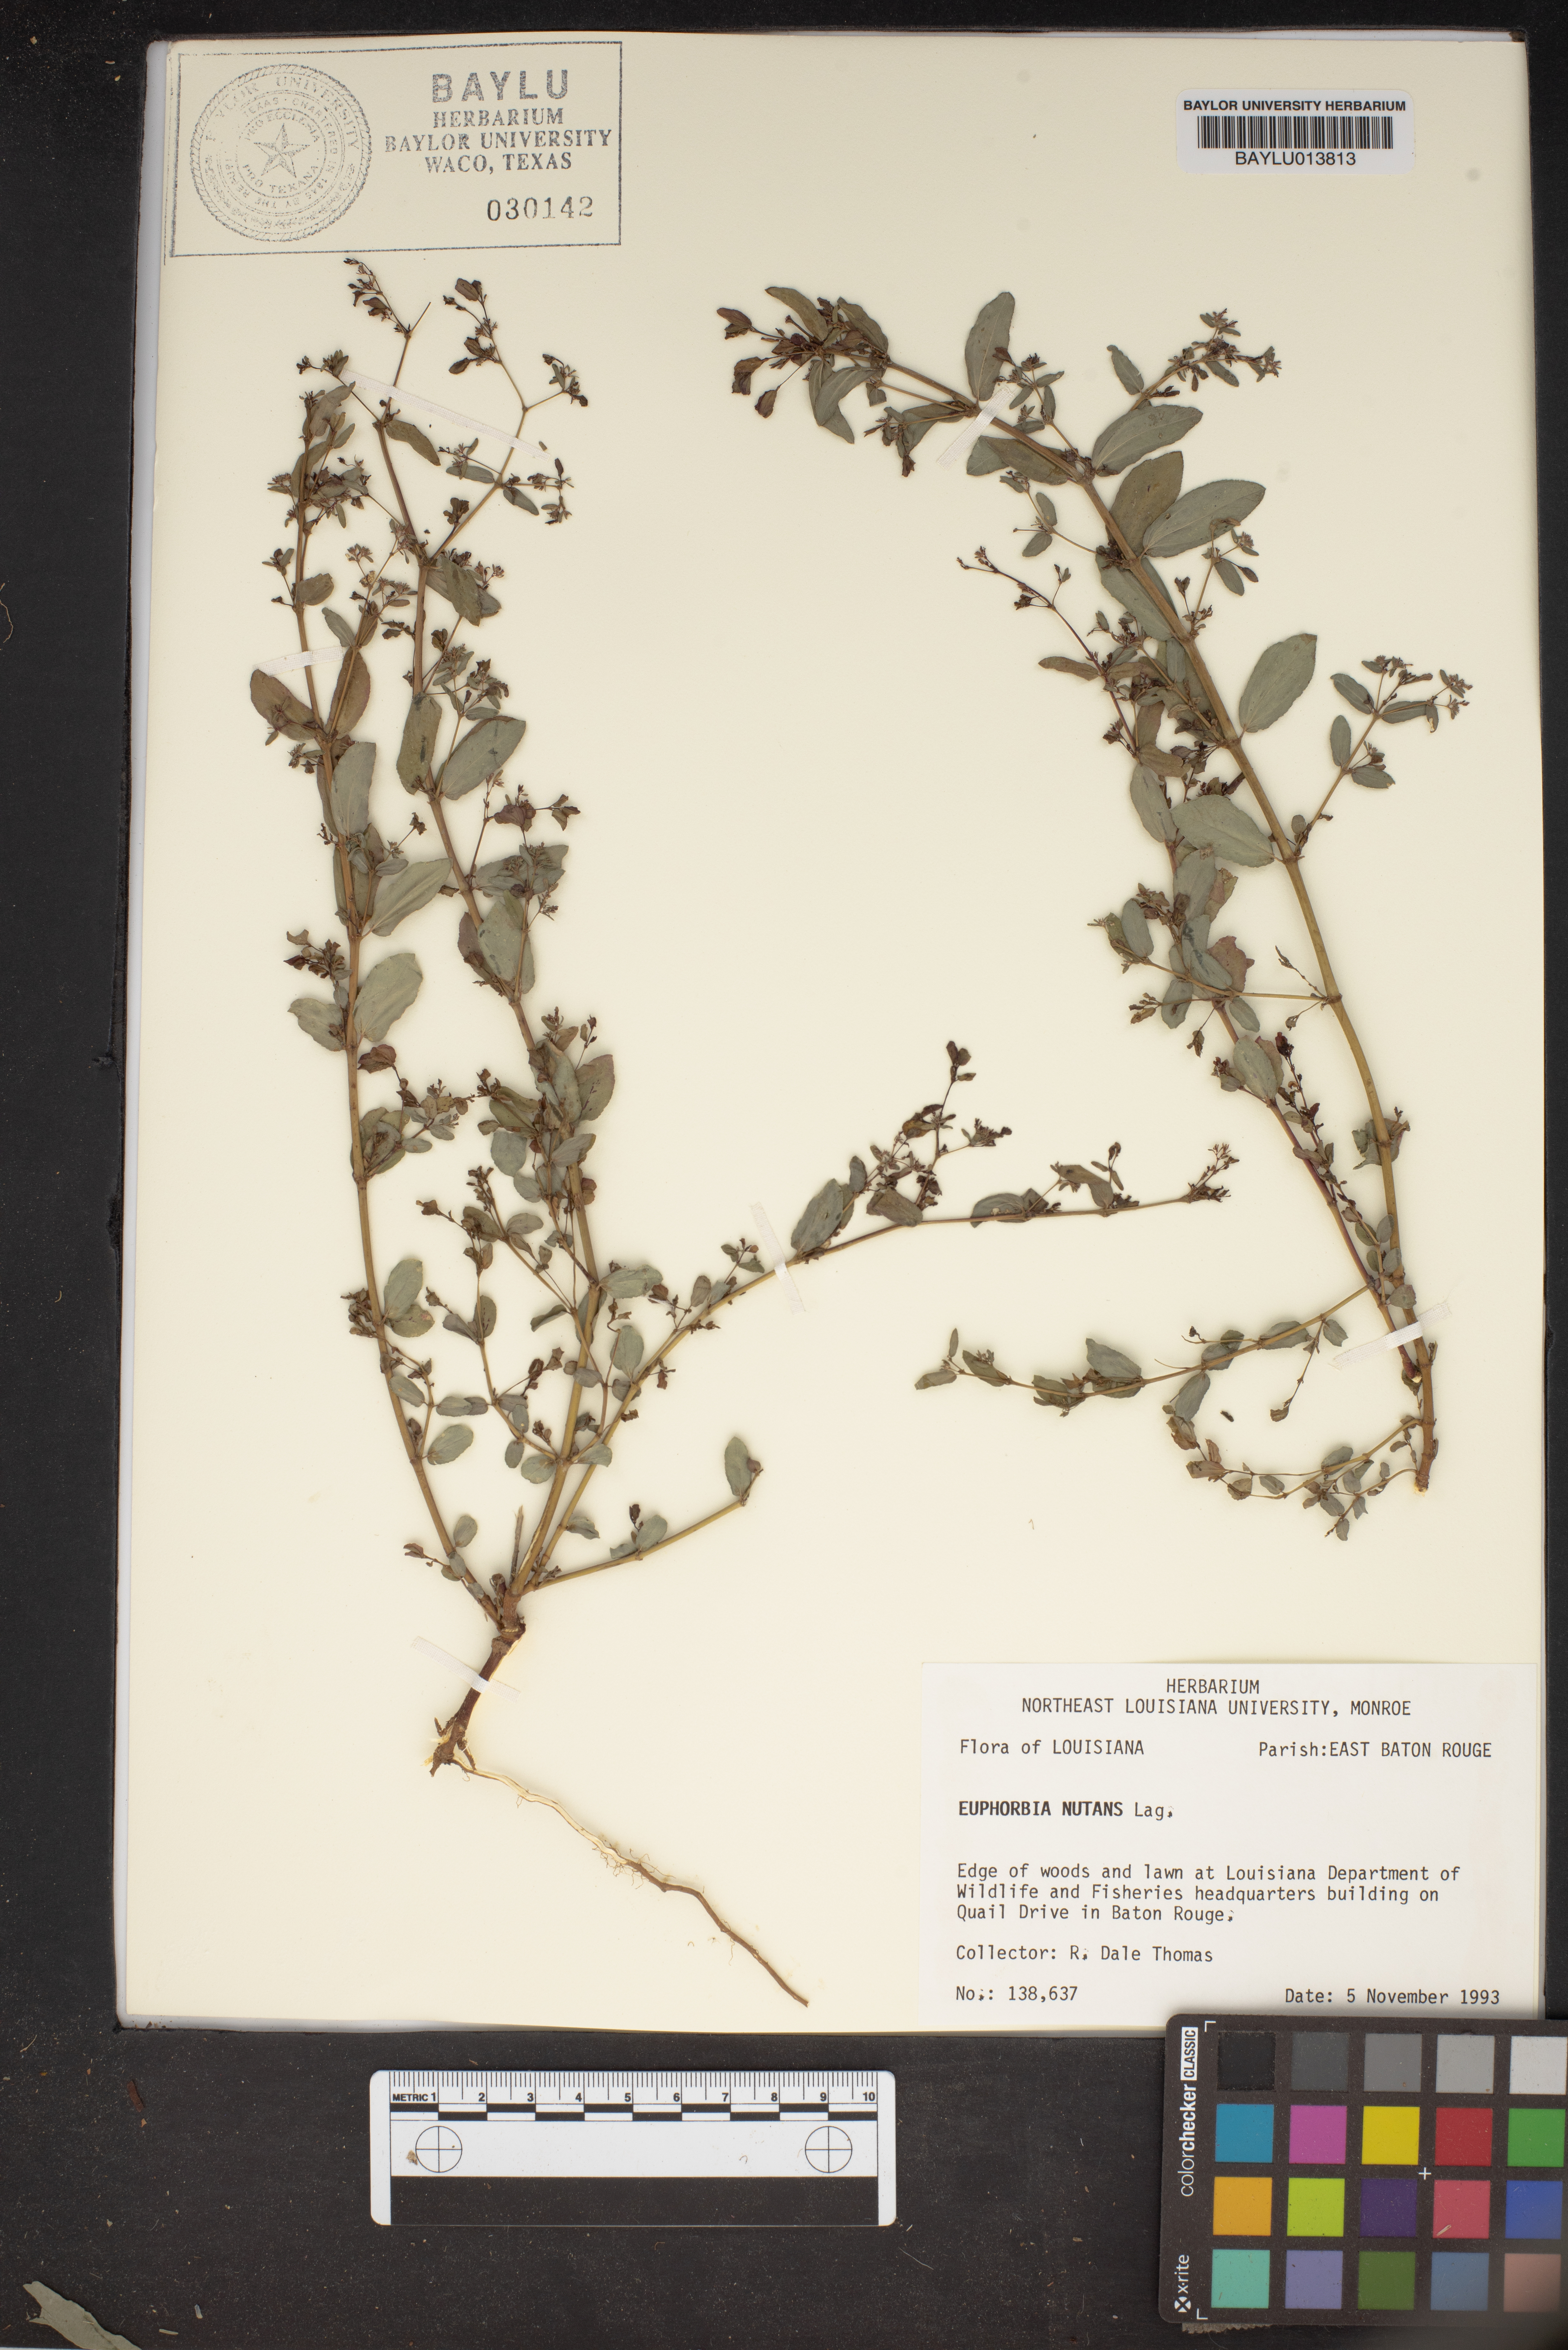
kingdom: Plantae
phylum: Tracheophyta
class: Magnoliopsida
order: Malpighiales
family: Euphorbiaceae
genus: Euphorbia
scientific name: Euphorbia nutans
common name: Eyebane
